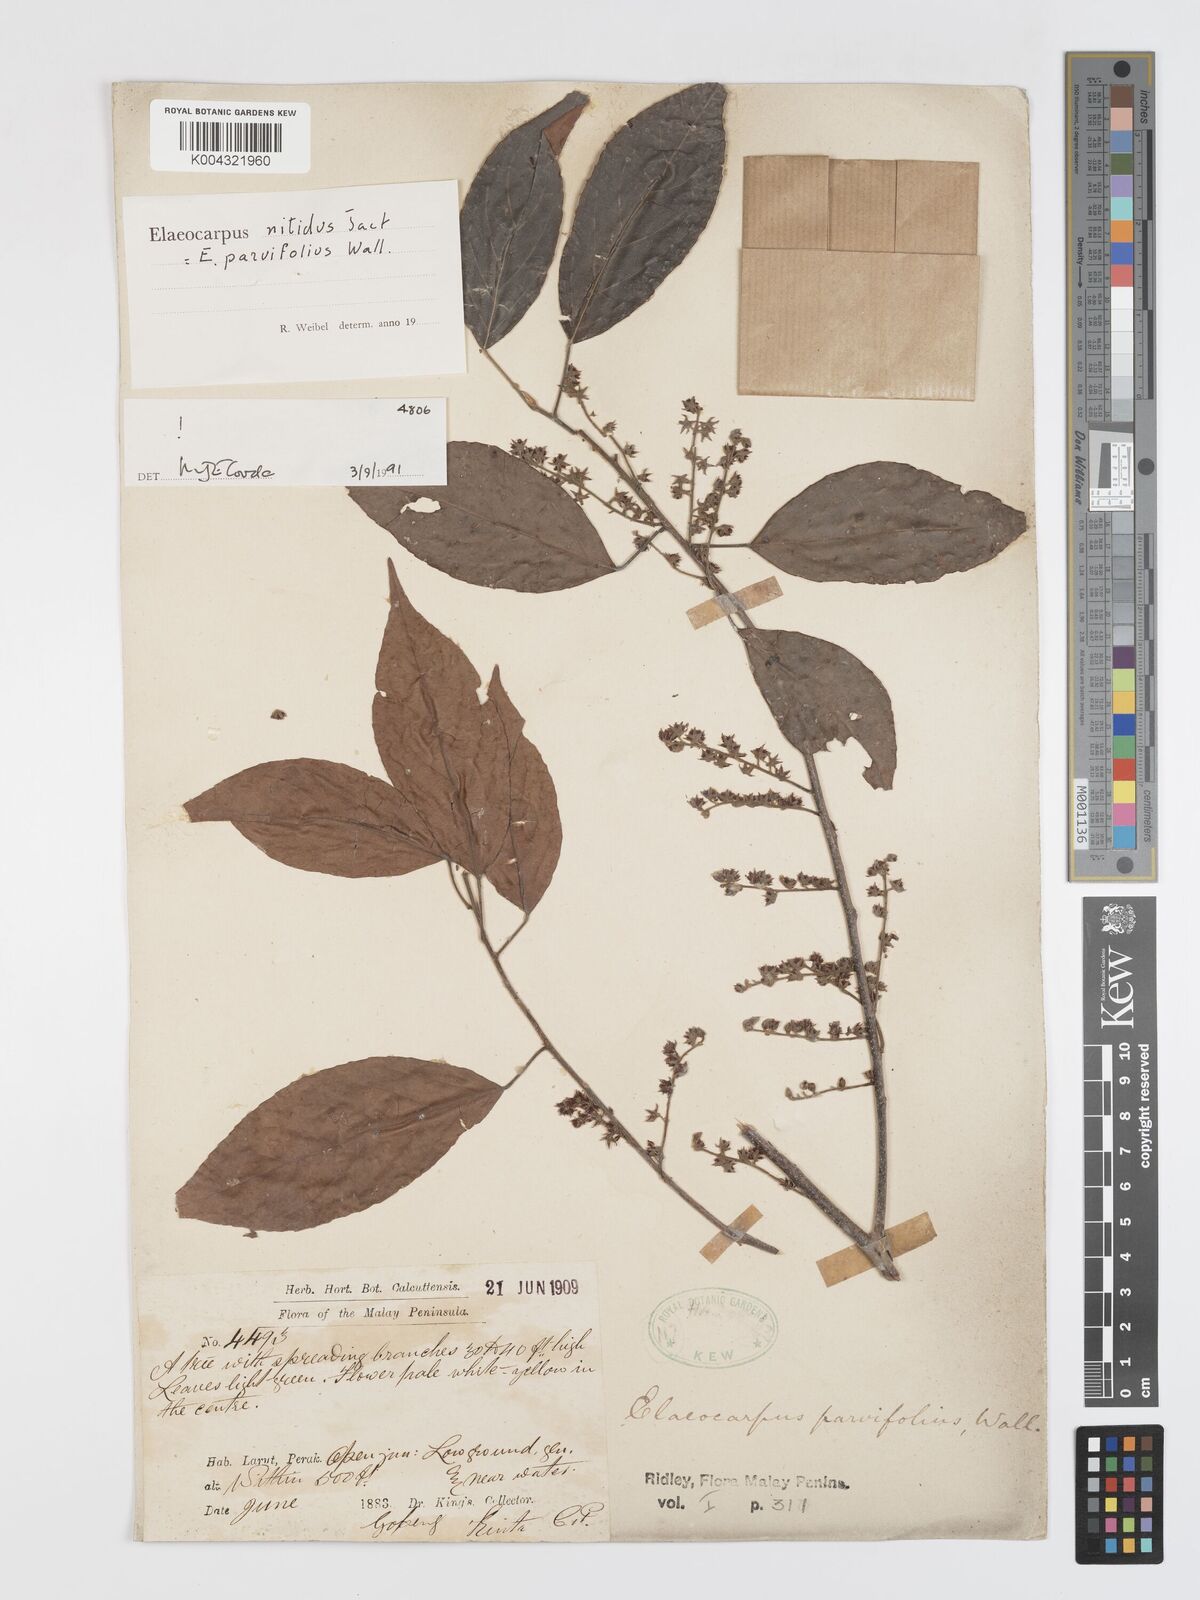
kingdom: Plantae
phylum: Tracheophyta
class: Magnoliopsida
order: Oxalidales
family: Elaeocarpaceae
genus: Elaeocarpus
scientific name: Elaeocarpus nitidus
